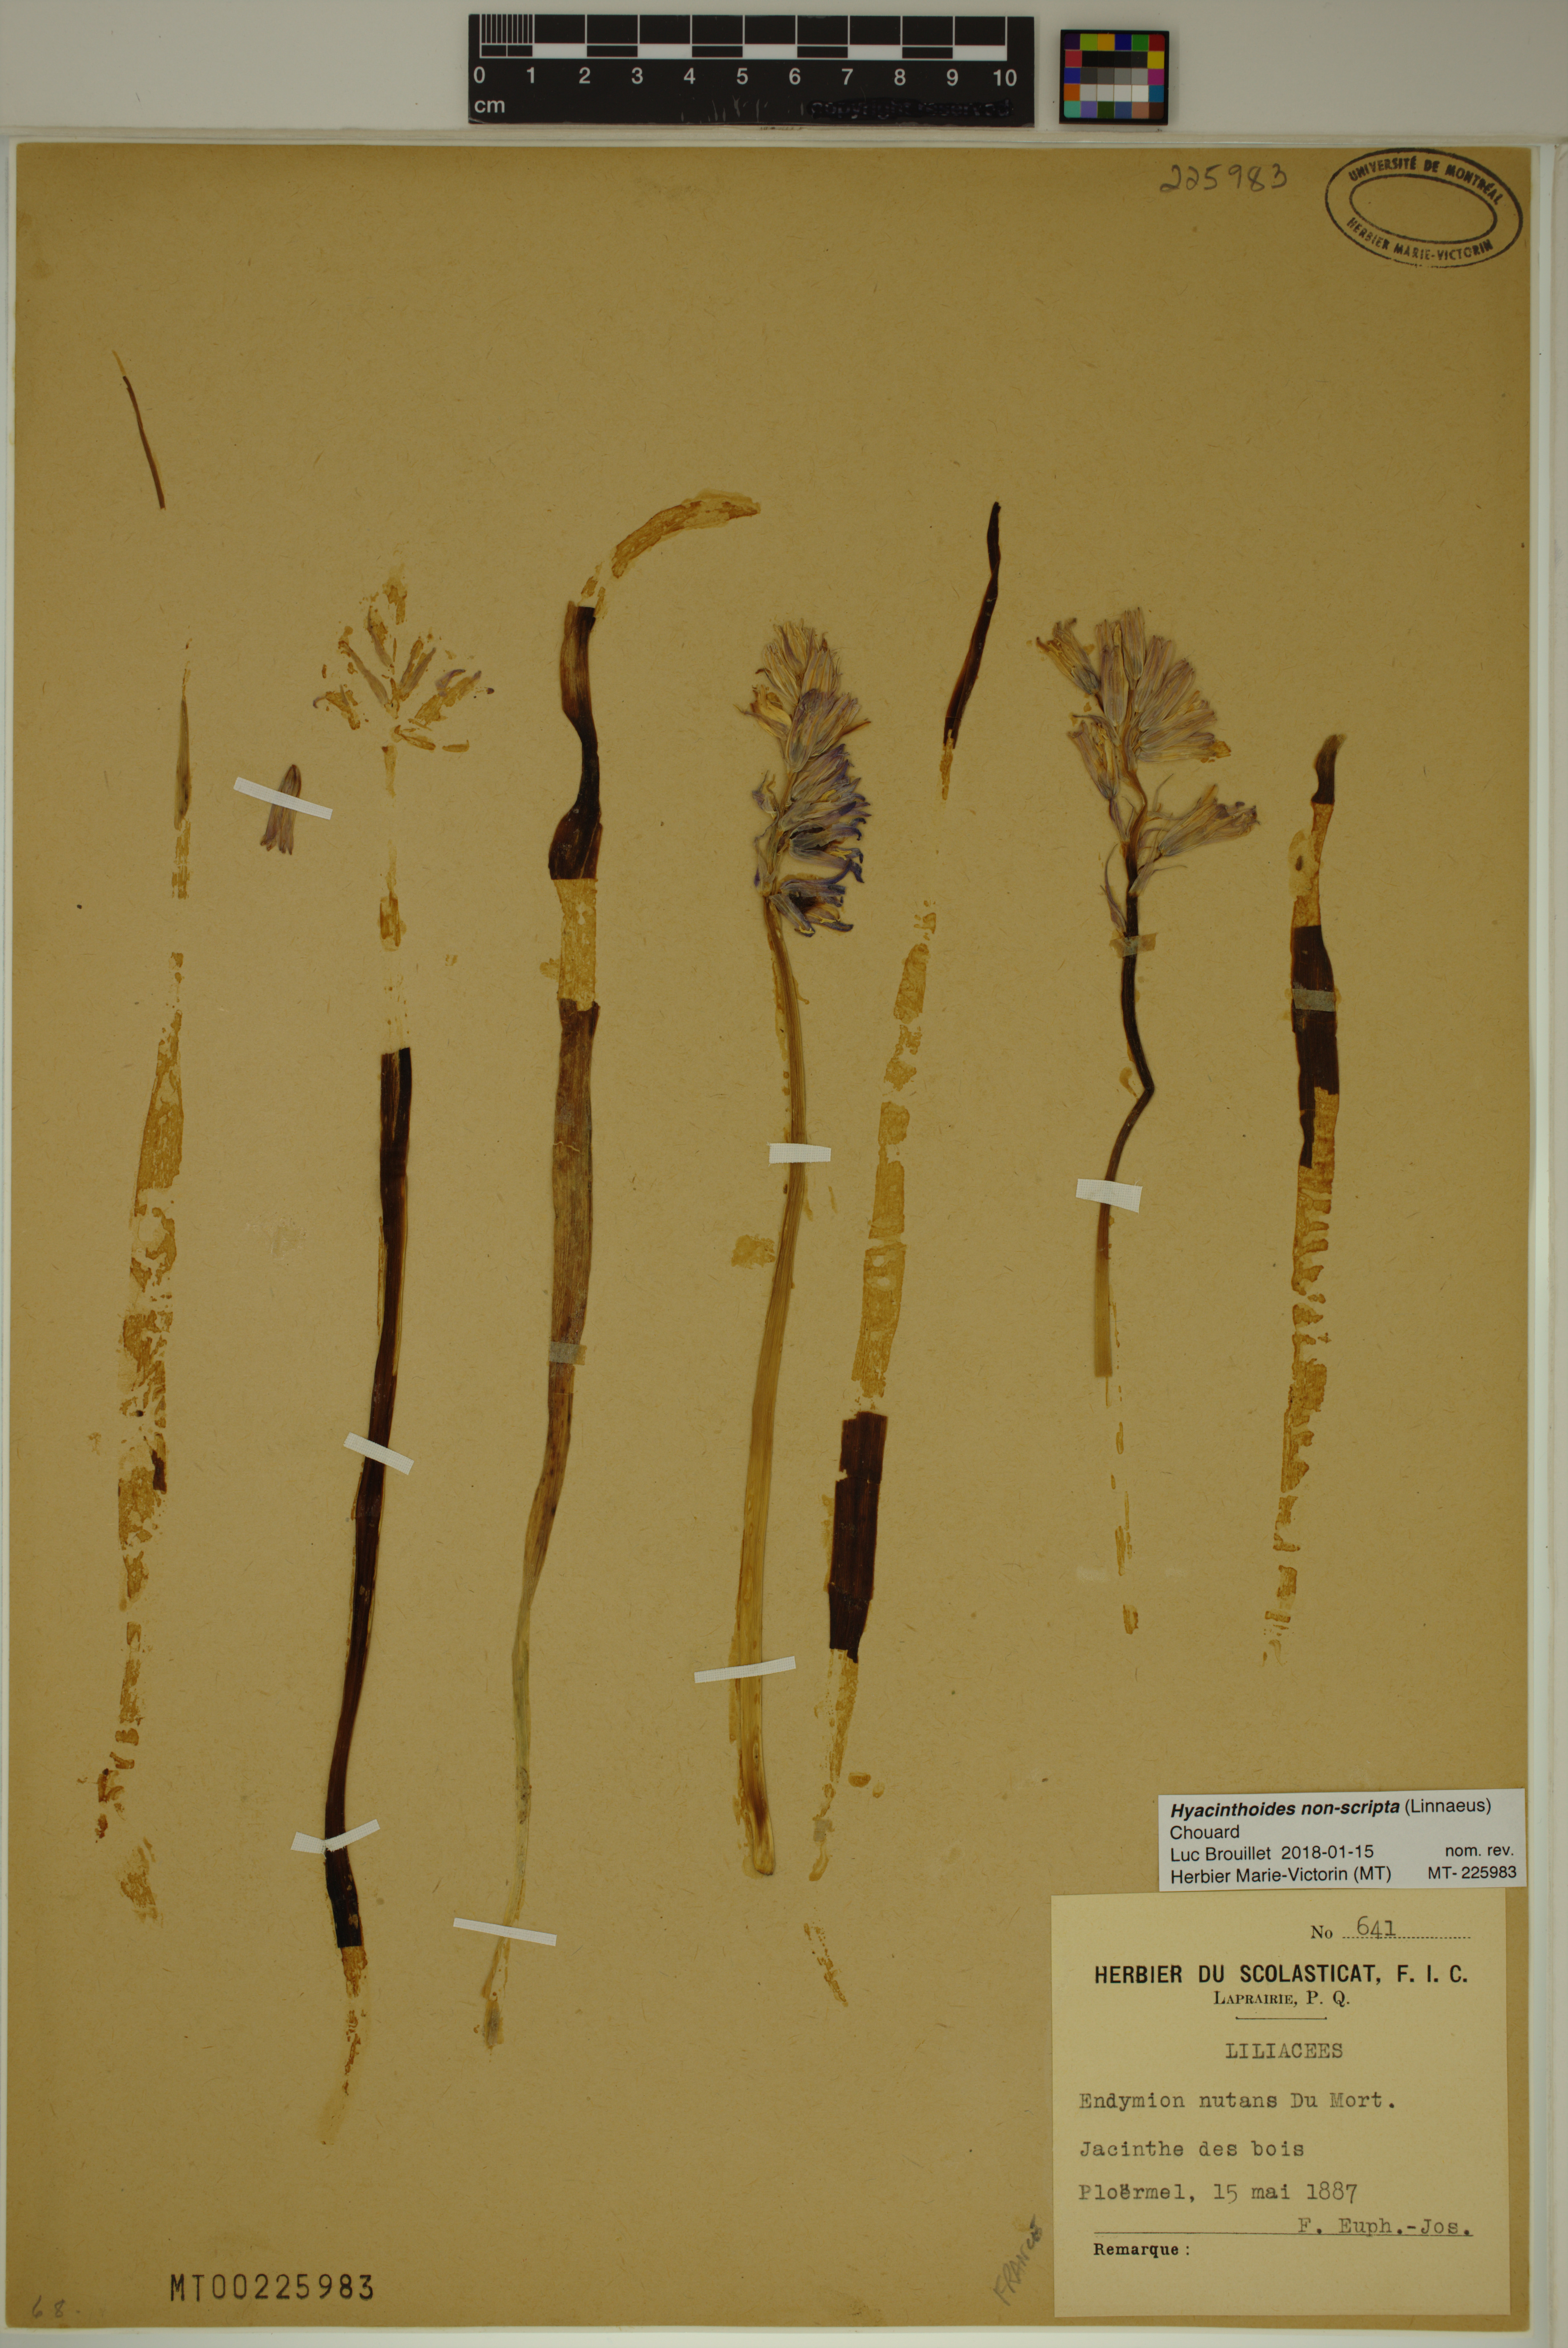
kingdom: Plantae
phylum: Tracheophyta
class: Liliopsida
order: Asparagales
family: Asparagaceae
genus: Hyacinthoides
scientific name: Hyacinthoides non-scripta
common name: Bluebell
